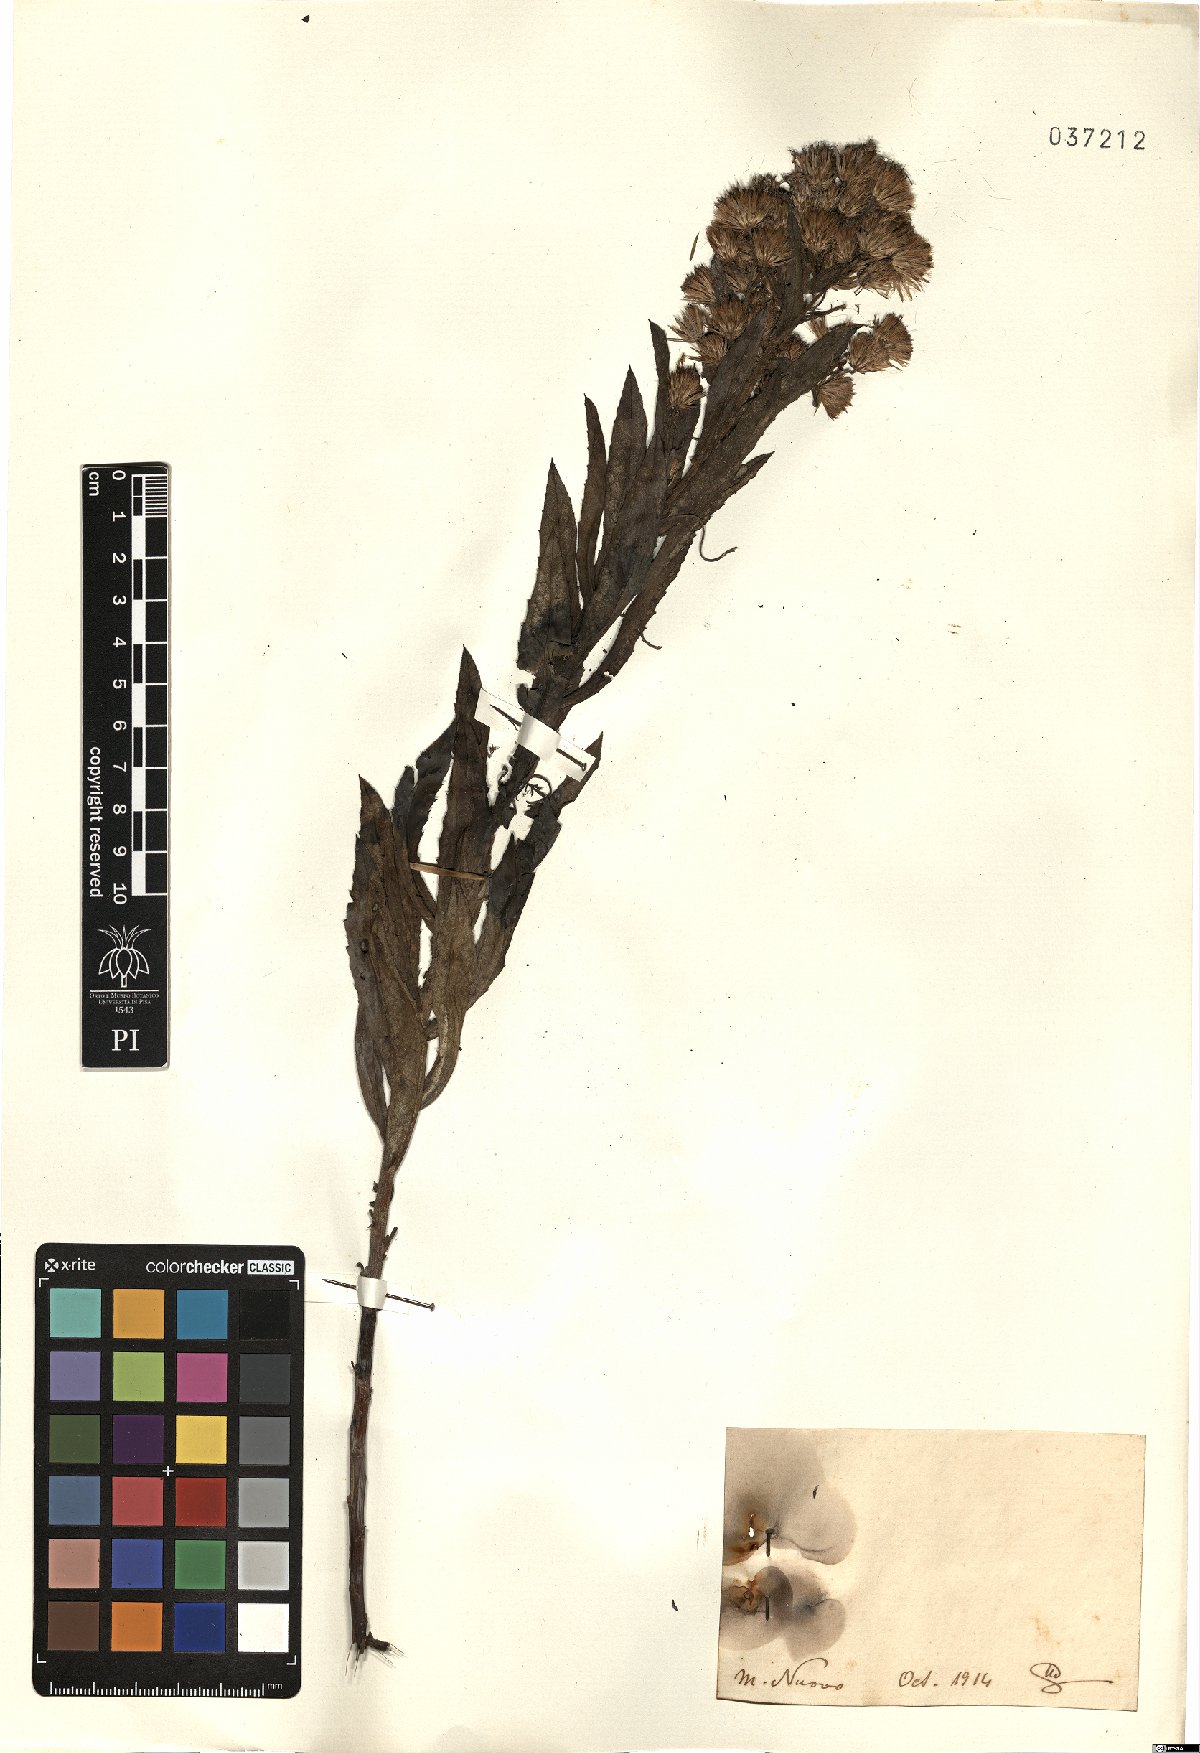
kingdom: Plantae
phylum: Tracheophyta
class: Magnoliopsida
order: Asterales
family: Asteraceae
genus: Inula
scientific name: Inula
